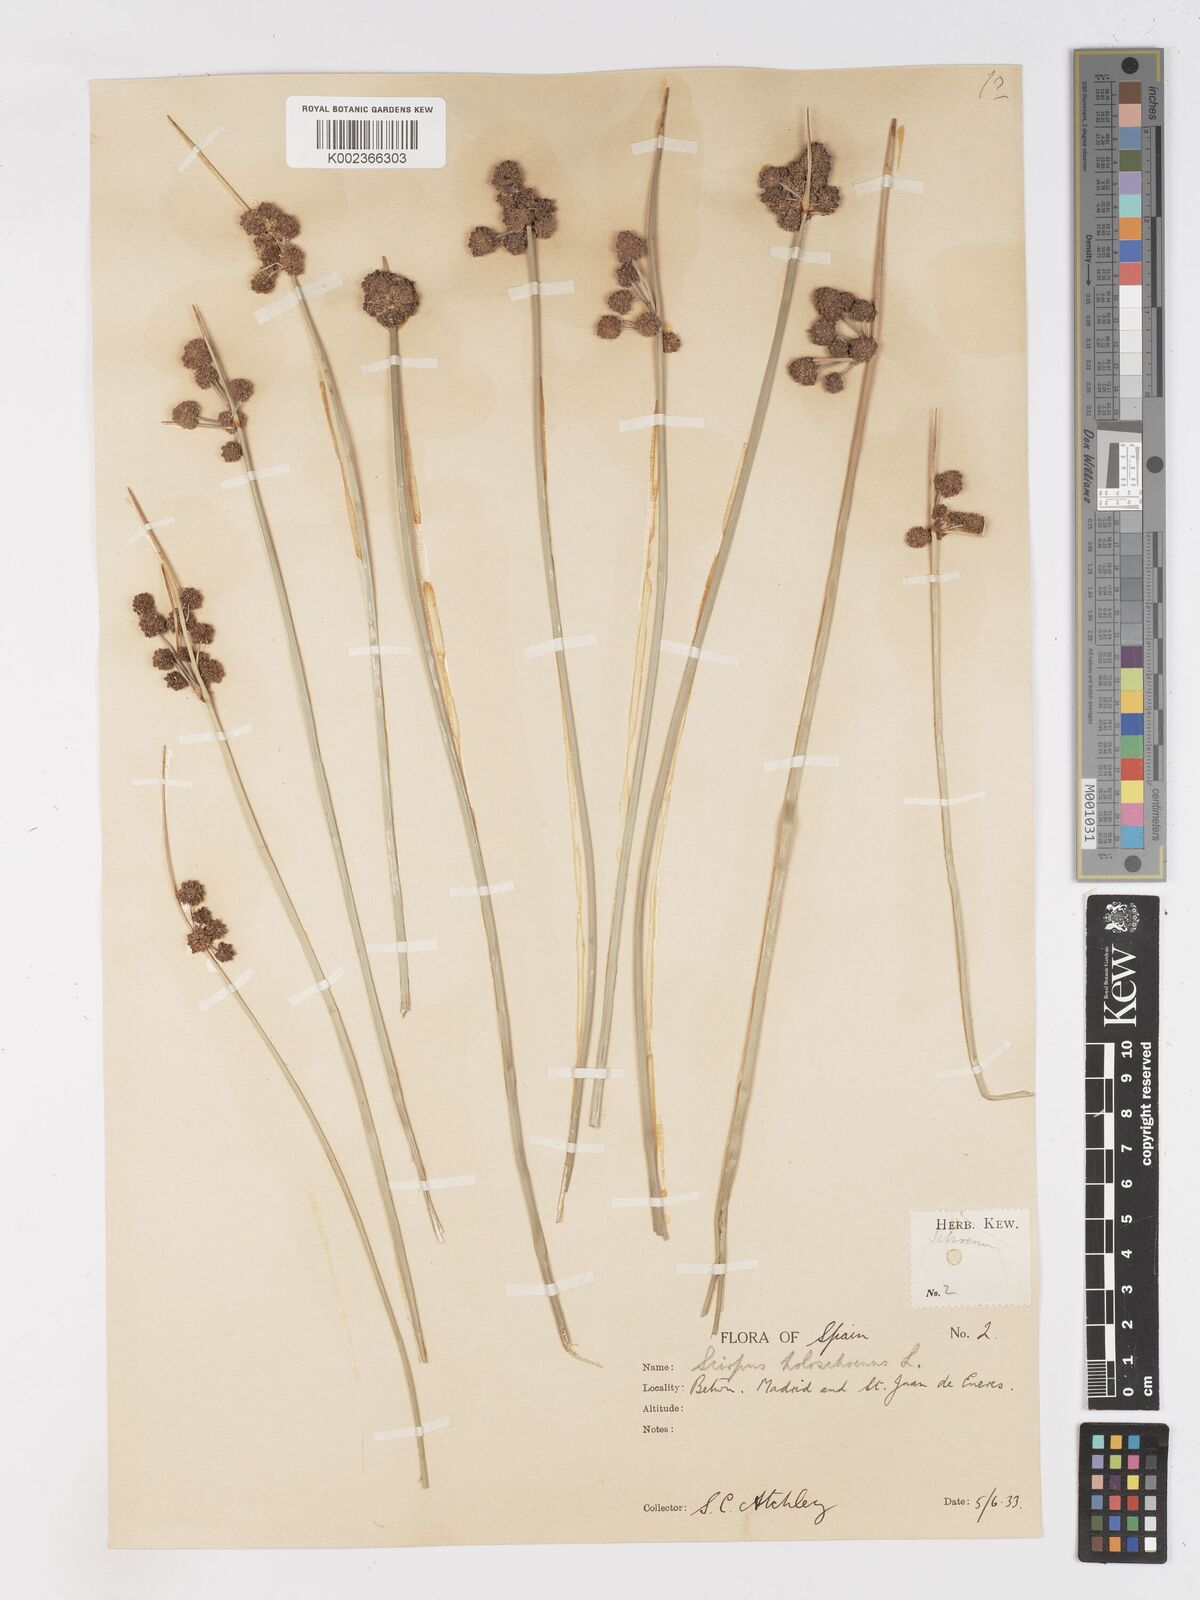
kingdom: Plantae
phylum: Tracheophyta
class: Liliopsida
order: Poales
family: Cyperaceae
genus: Scirpoides
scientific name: Scirpoides holoschoenus
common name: Round-headed club-rush
